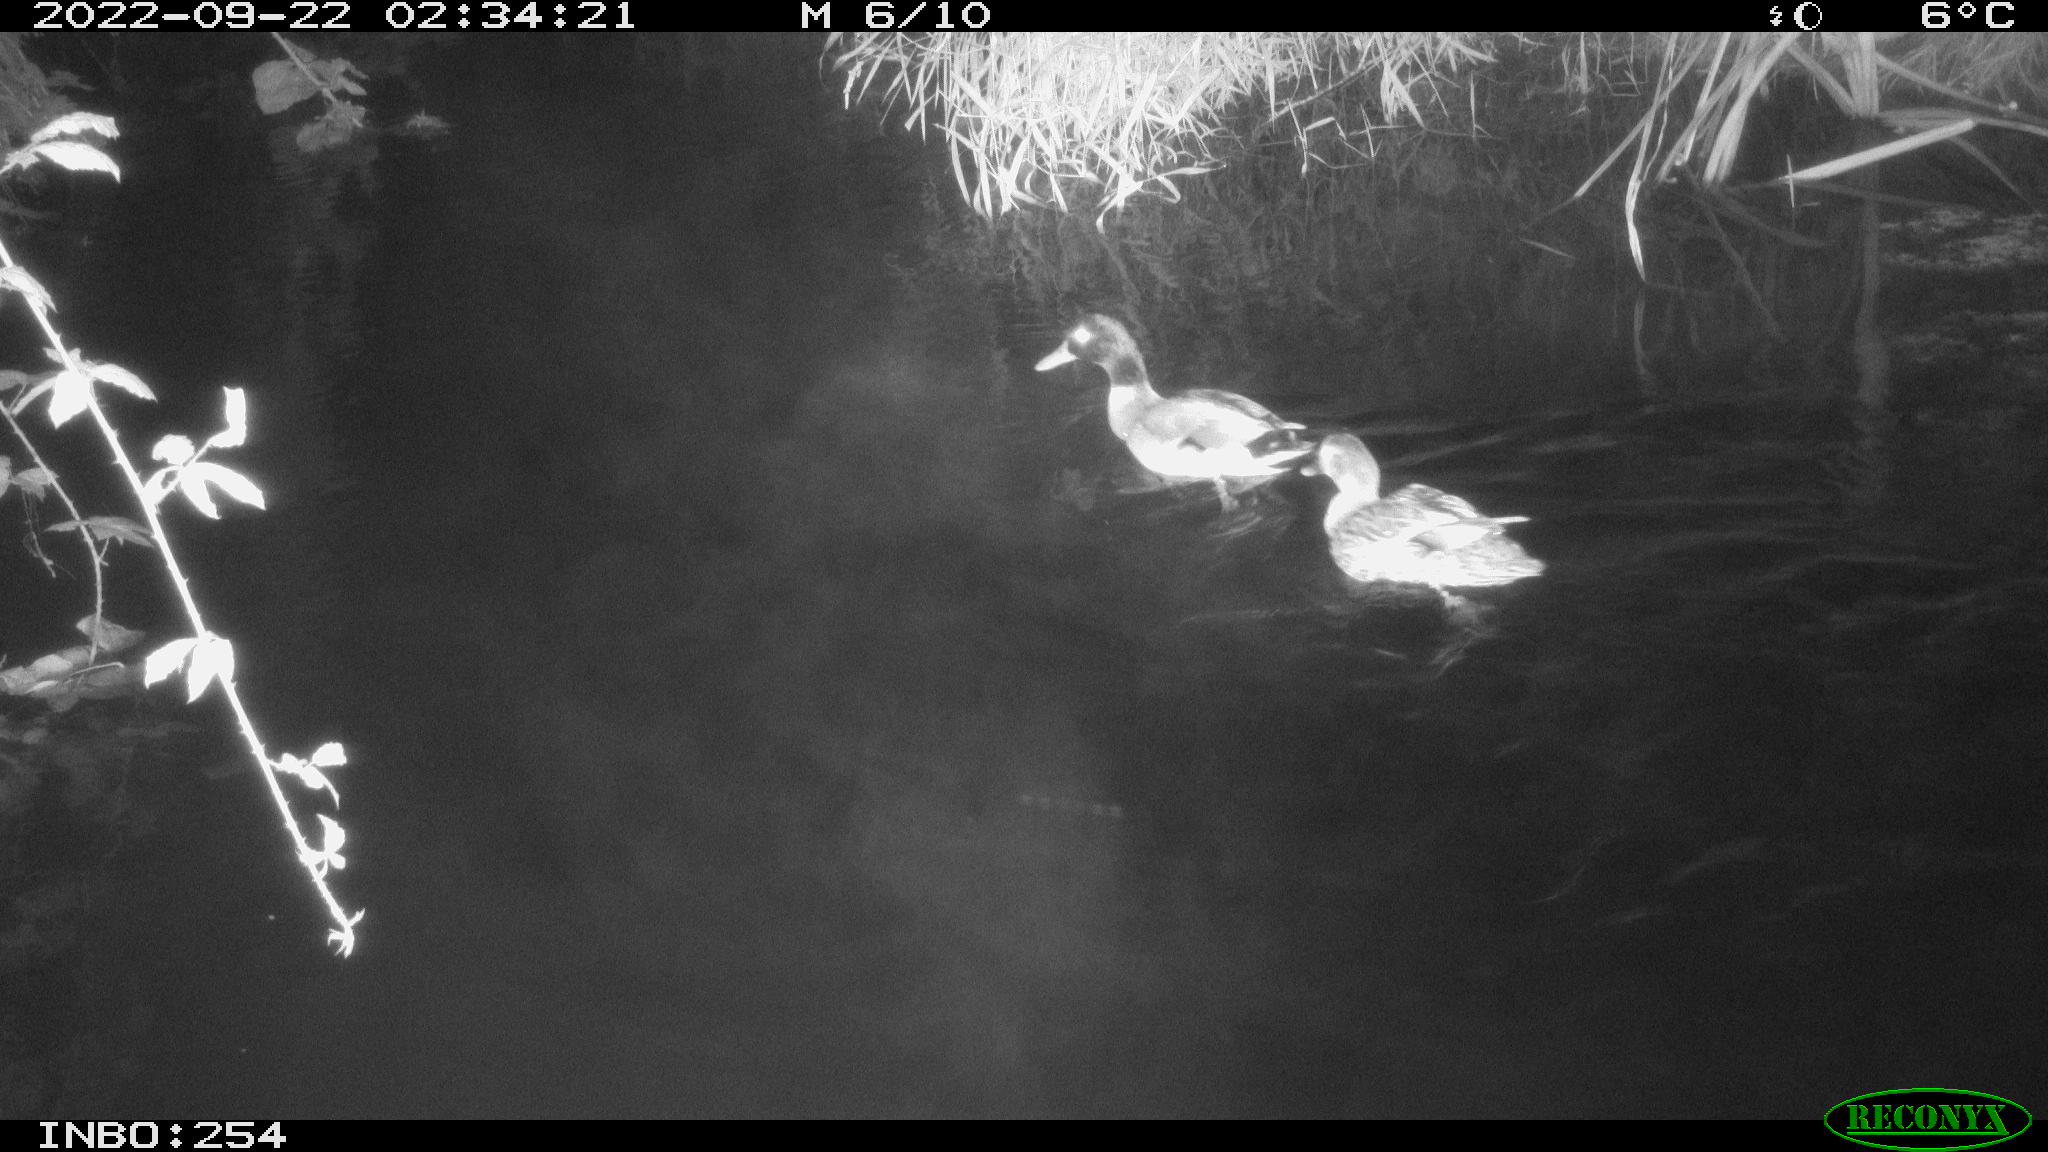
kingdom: Animalia
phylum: Chordata
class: Aves
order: Anseriformes
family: Anatidae
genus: Anas
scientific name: Anas
